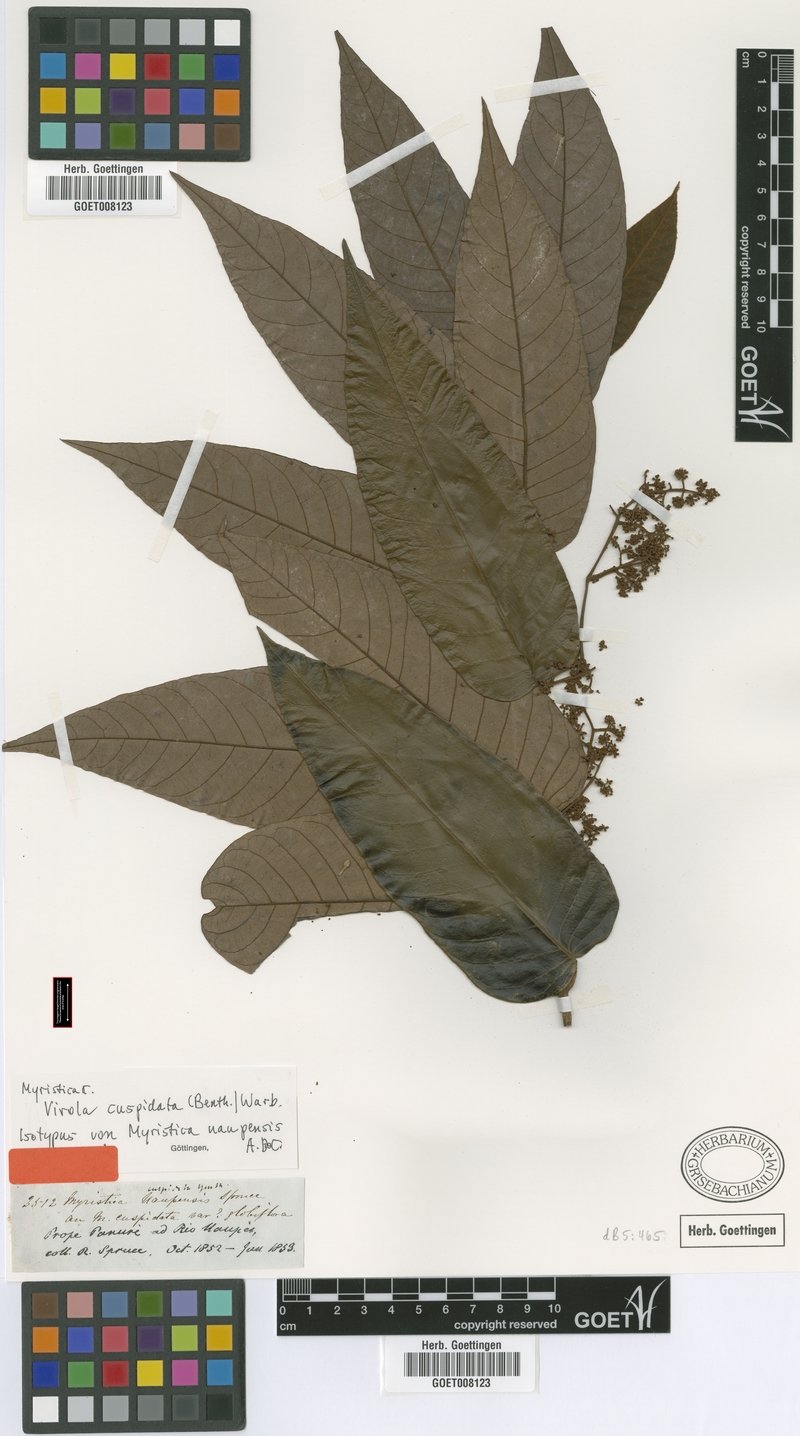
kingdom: Plantae
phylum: Tracheophyta
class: Magnoliopsida
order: Magnoliales
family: Myristicaceae
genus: Virola
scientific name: Virola elongata
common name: Sacred virola
